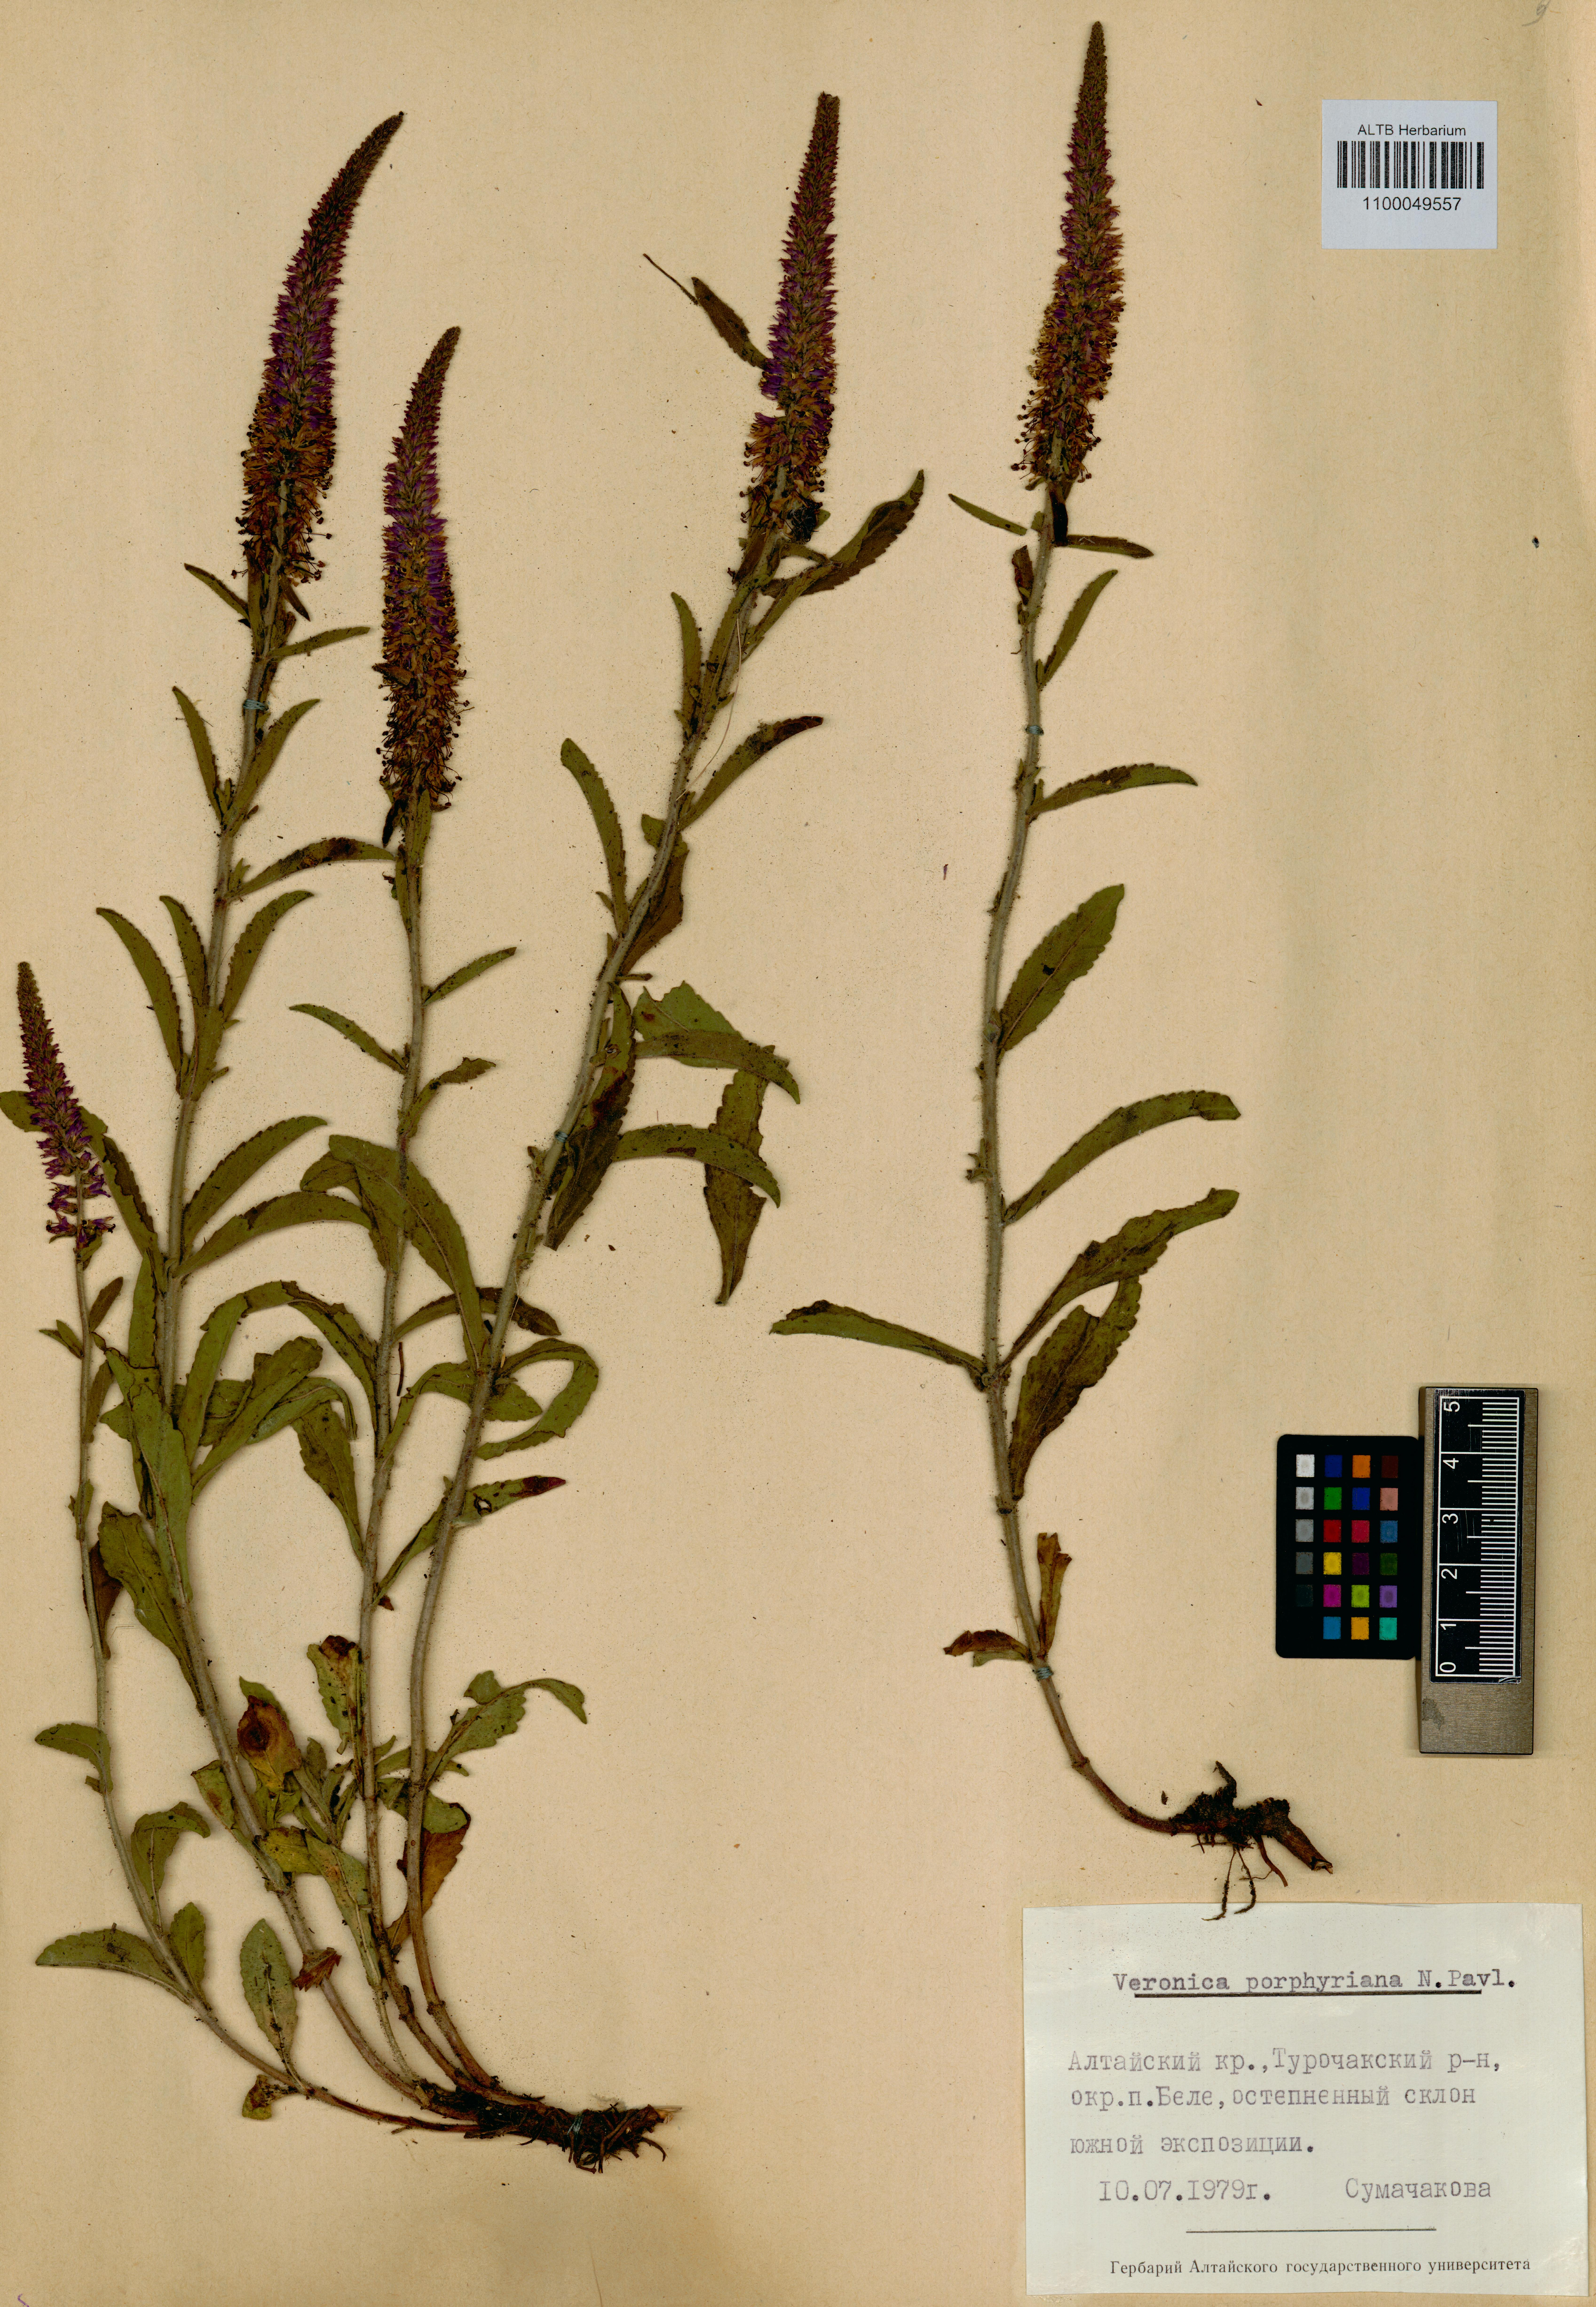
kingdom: Plantae
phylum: Tracheophyta
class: Magnoliopsida
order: Lamiales
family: Plantaginaceae
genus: Veronica
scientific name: Veronica porphyriana
